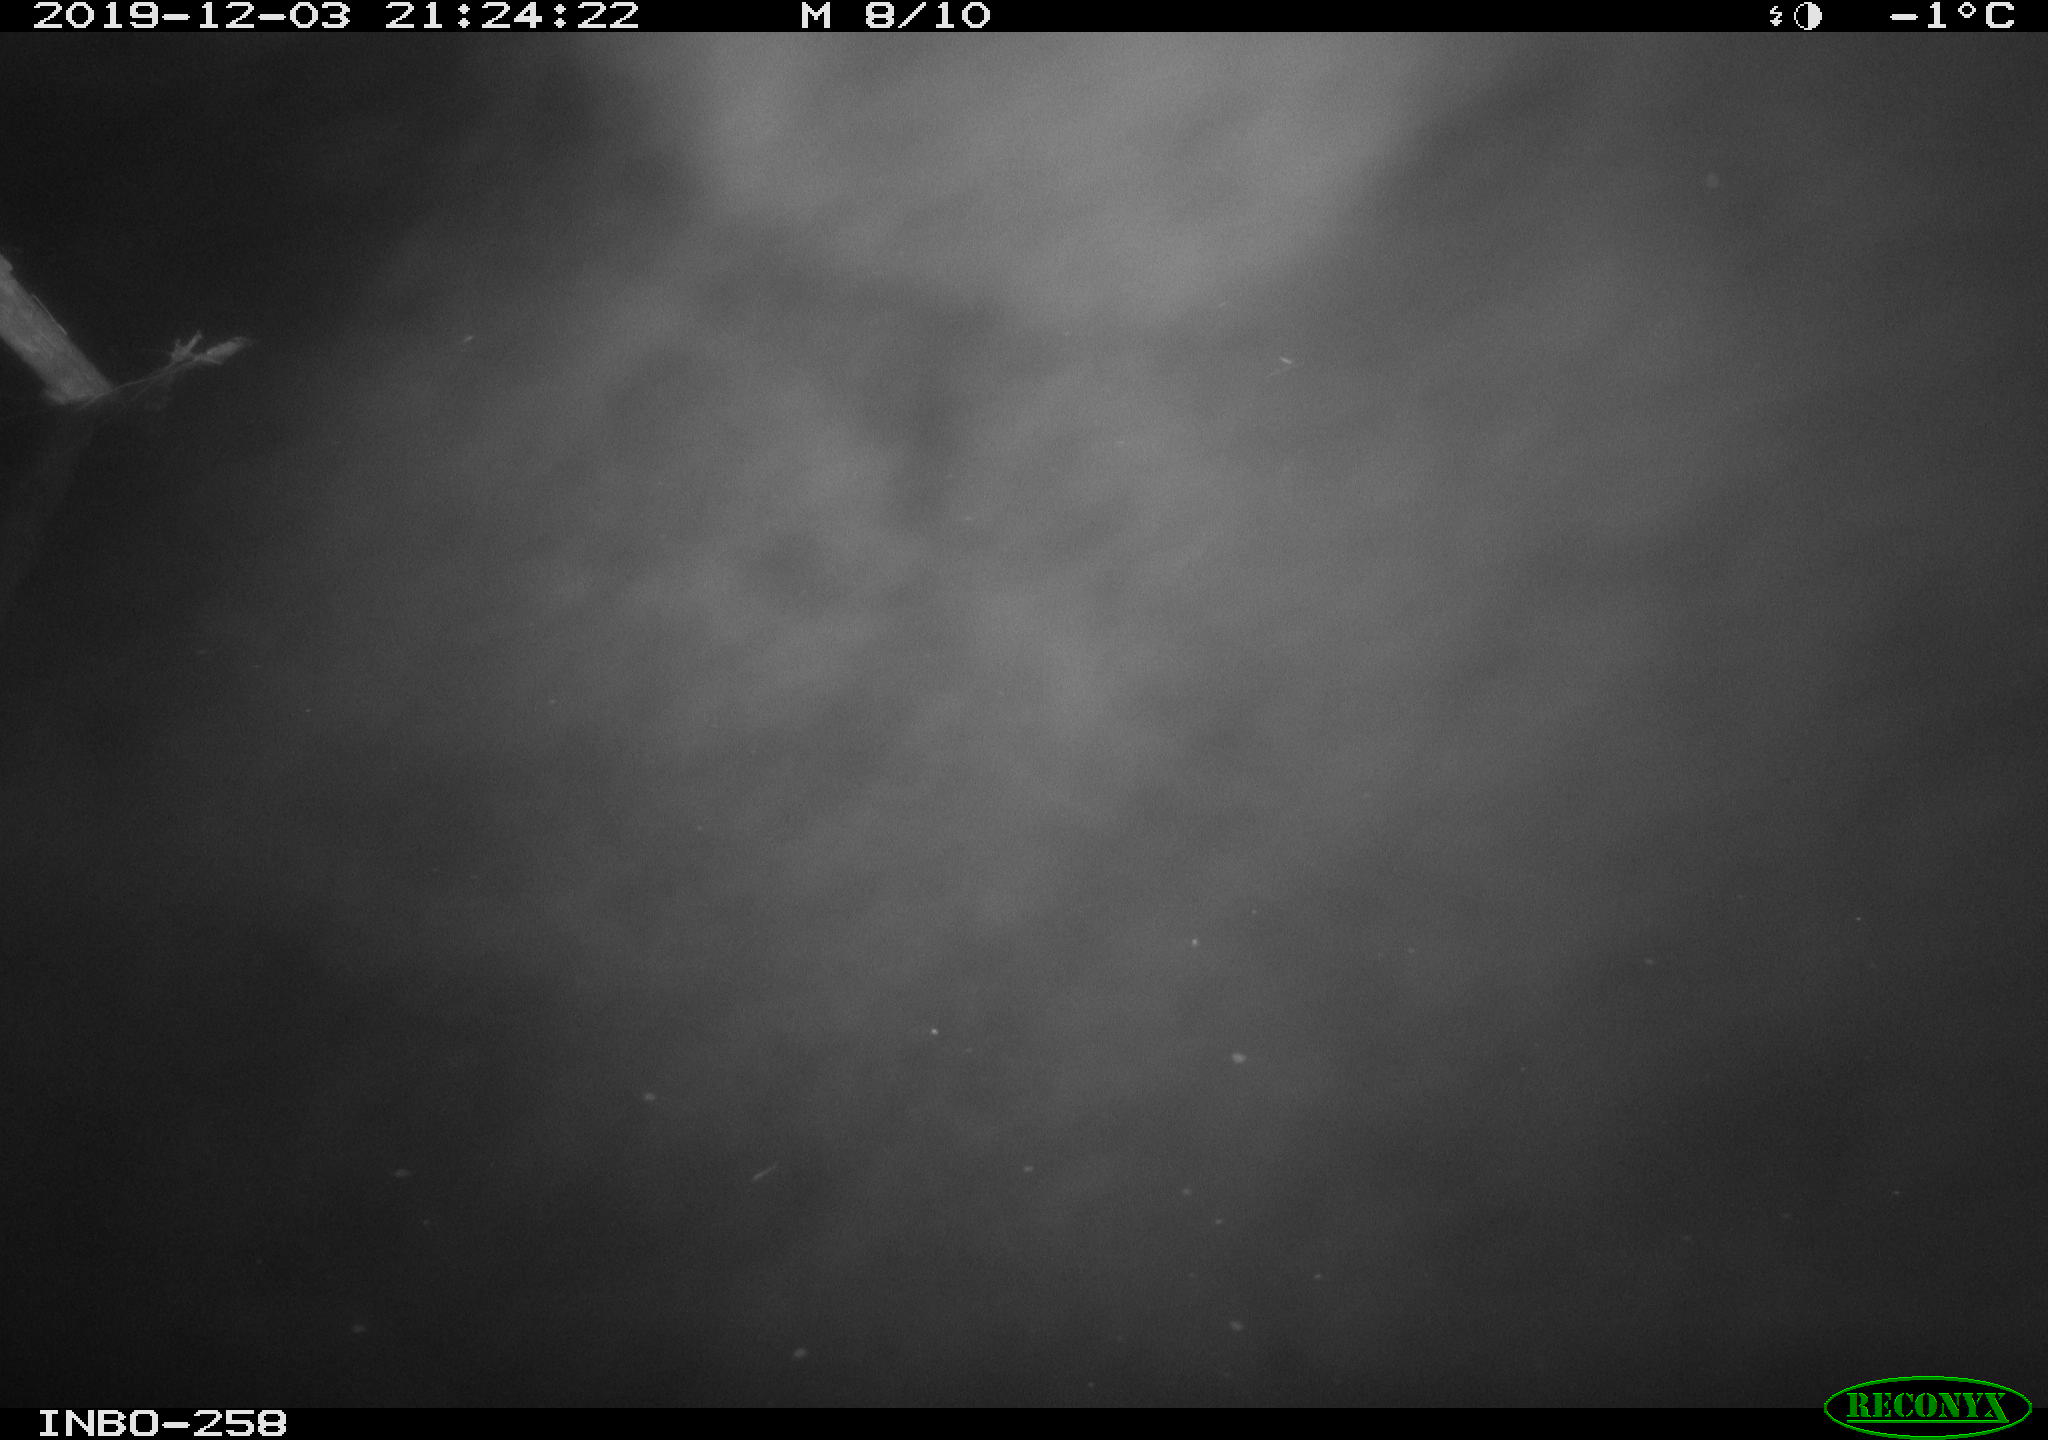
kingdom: Animalia
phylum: Chordata
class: Aves
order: Anseriformes
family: Anatidae
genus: Anas
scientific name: Anas platyrhynchos
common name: Mallard
